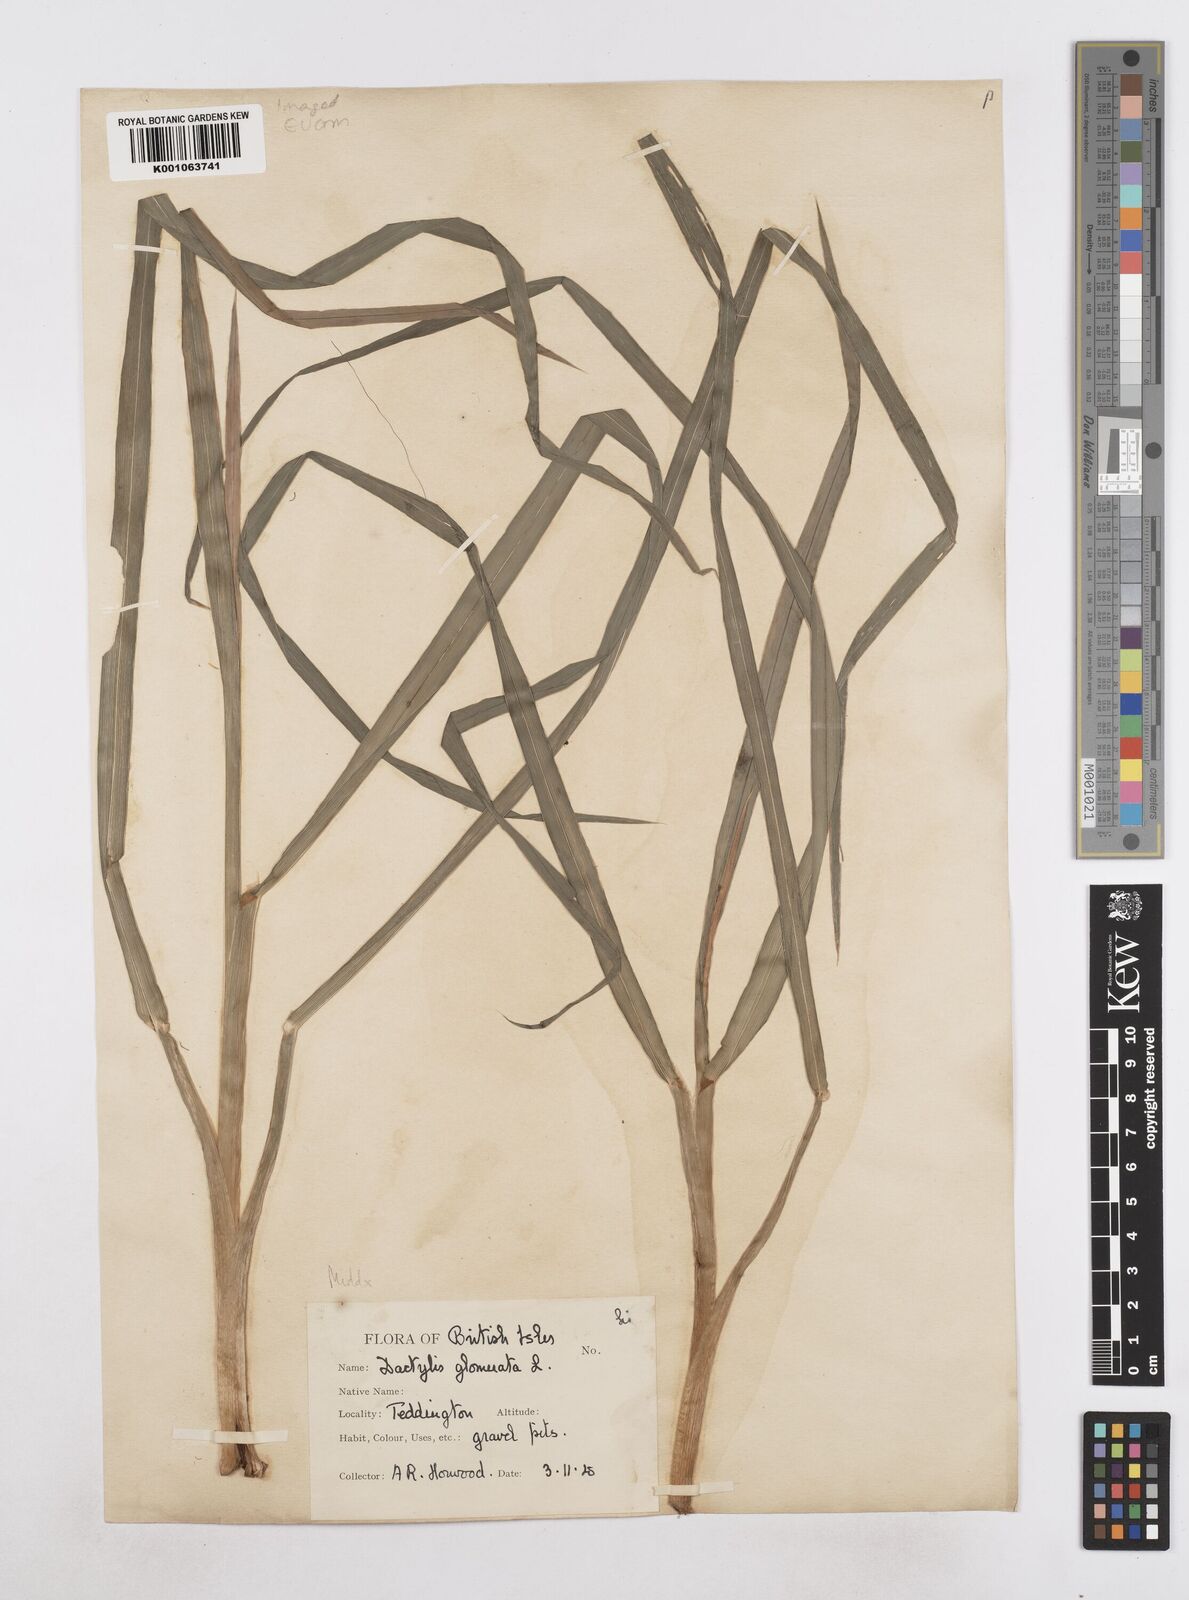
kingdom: Plantae
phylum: Tracheophyta
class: Liliopsida
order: Poales
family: Poaceae
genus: Dactylis
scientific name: Dactylis glomerata
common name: Orchardgrass
